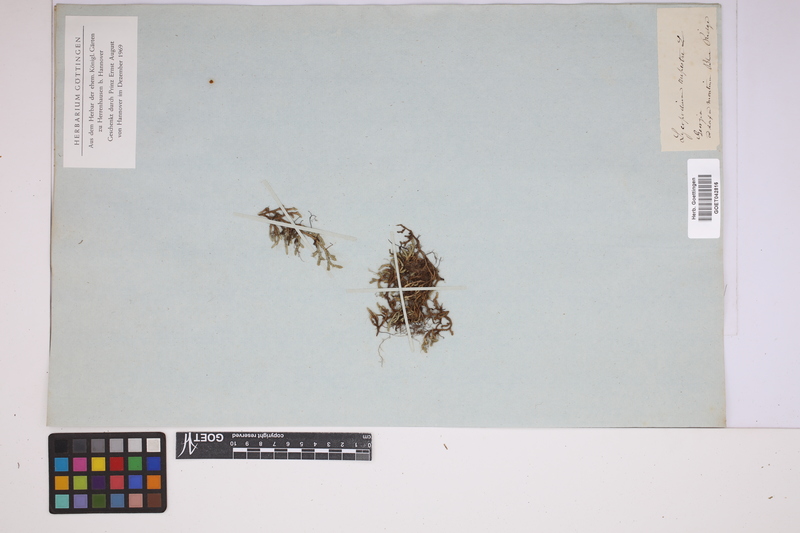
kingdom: Plantae
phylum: Tracheophyta
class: Lycopodiopsida
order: Selaginellales
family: Selaginellaceae
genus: Selaginella
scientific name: Selaginella rupestris
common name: Dwarf spikemoss
